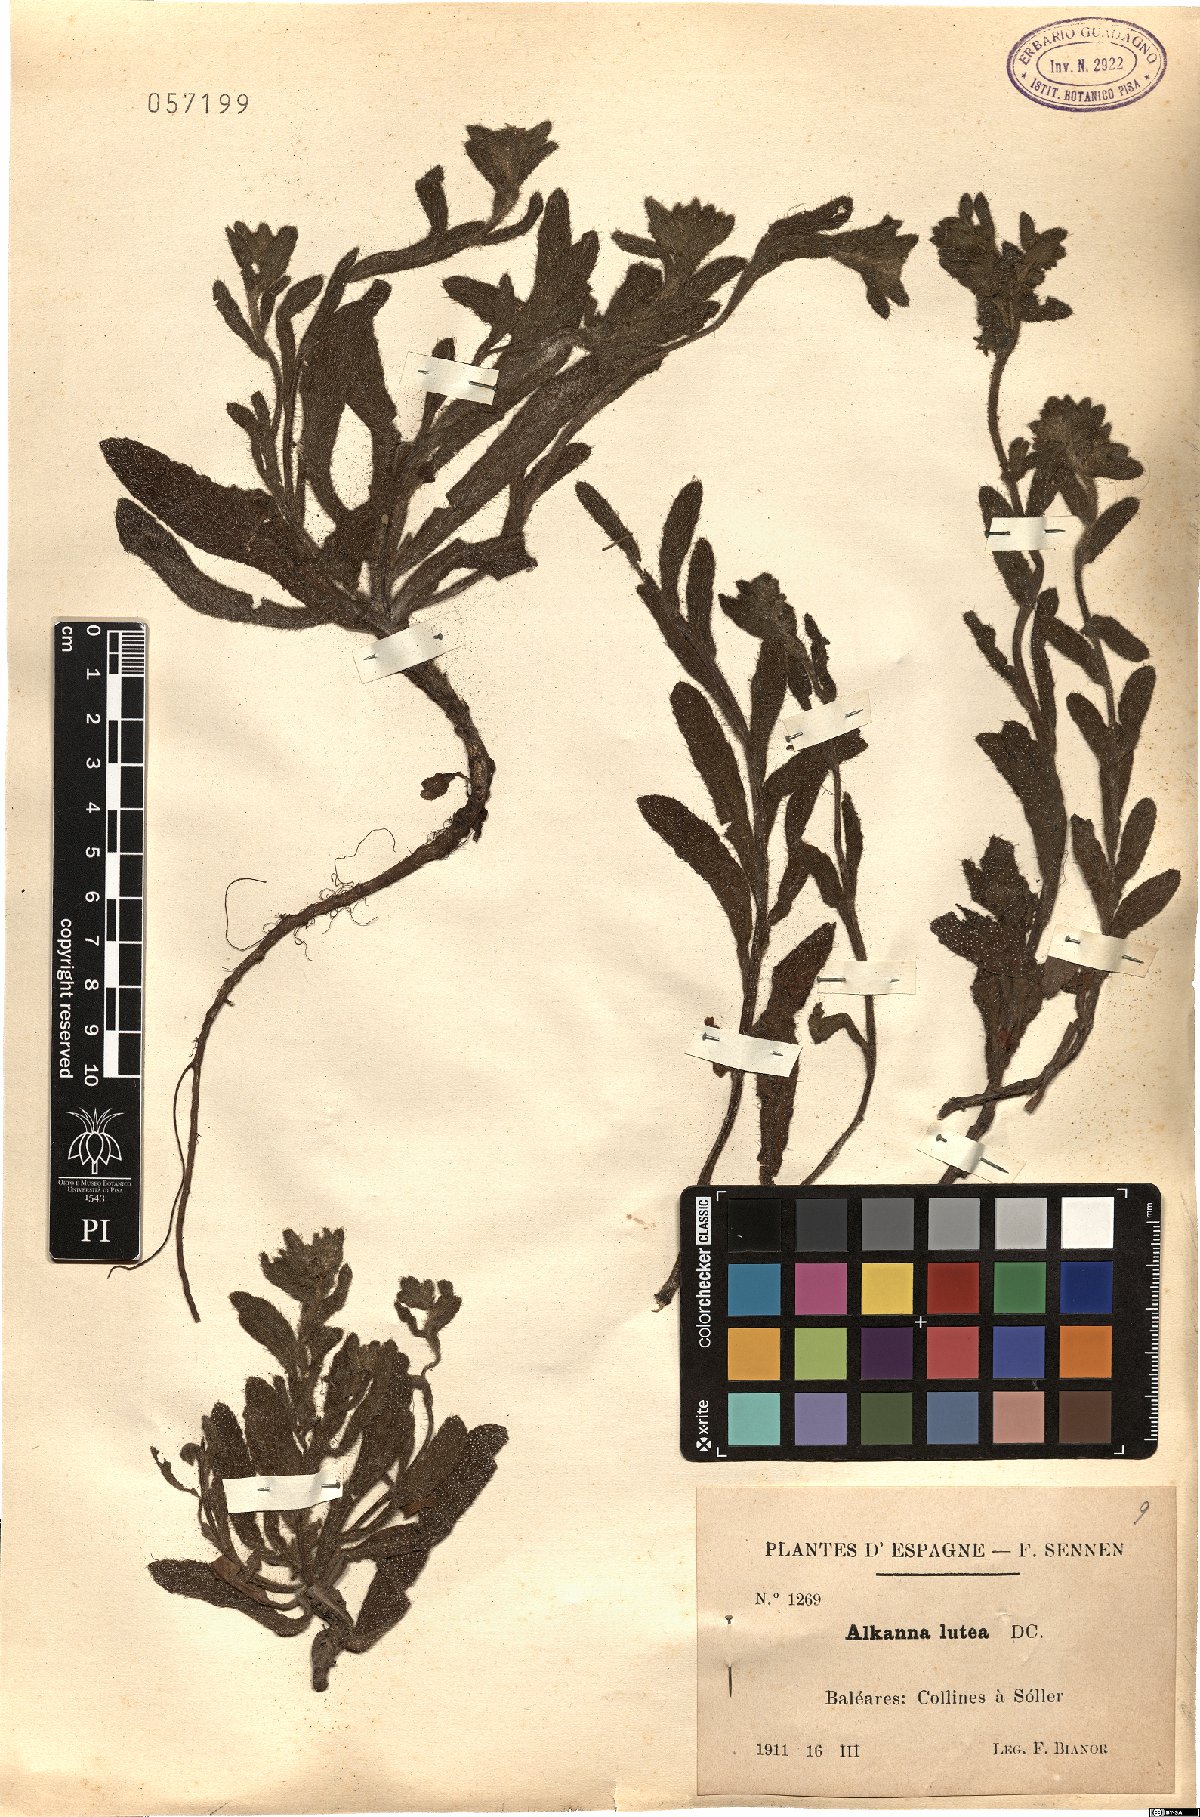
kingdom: Plantae
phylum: Tracheophyta
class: Magnoliopsida
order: Boraginales
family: Boraginaceae
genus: Alkanna
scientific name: Alkanna lutea
